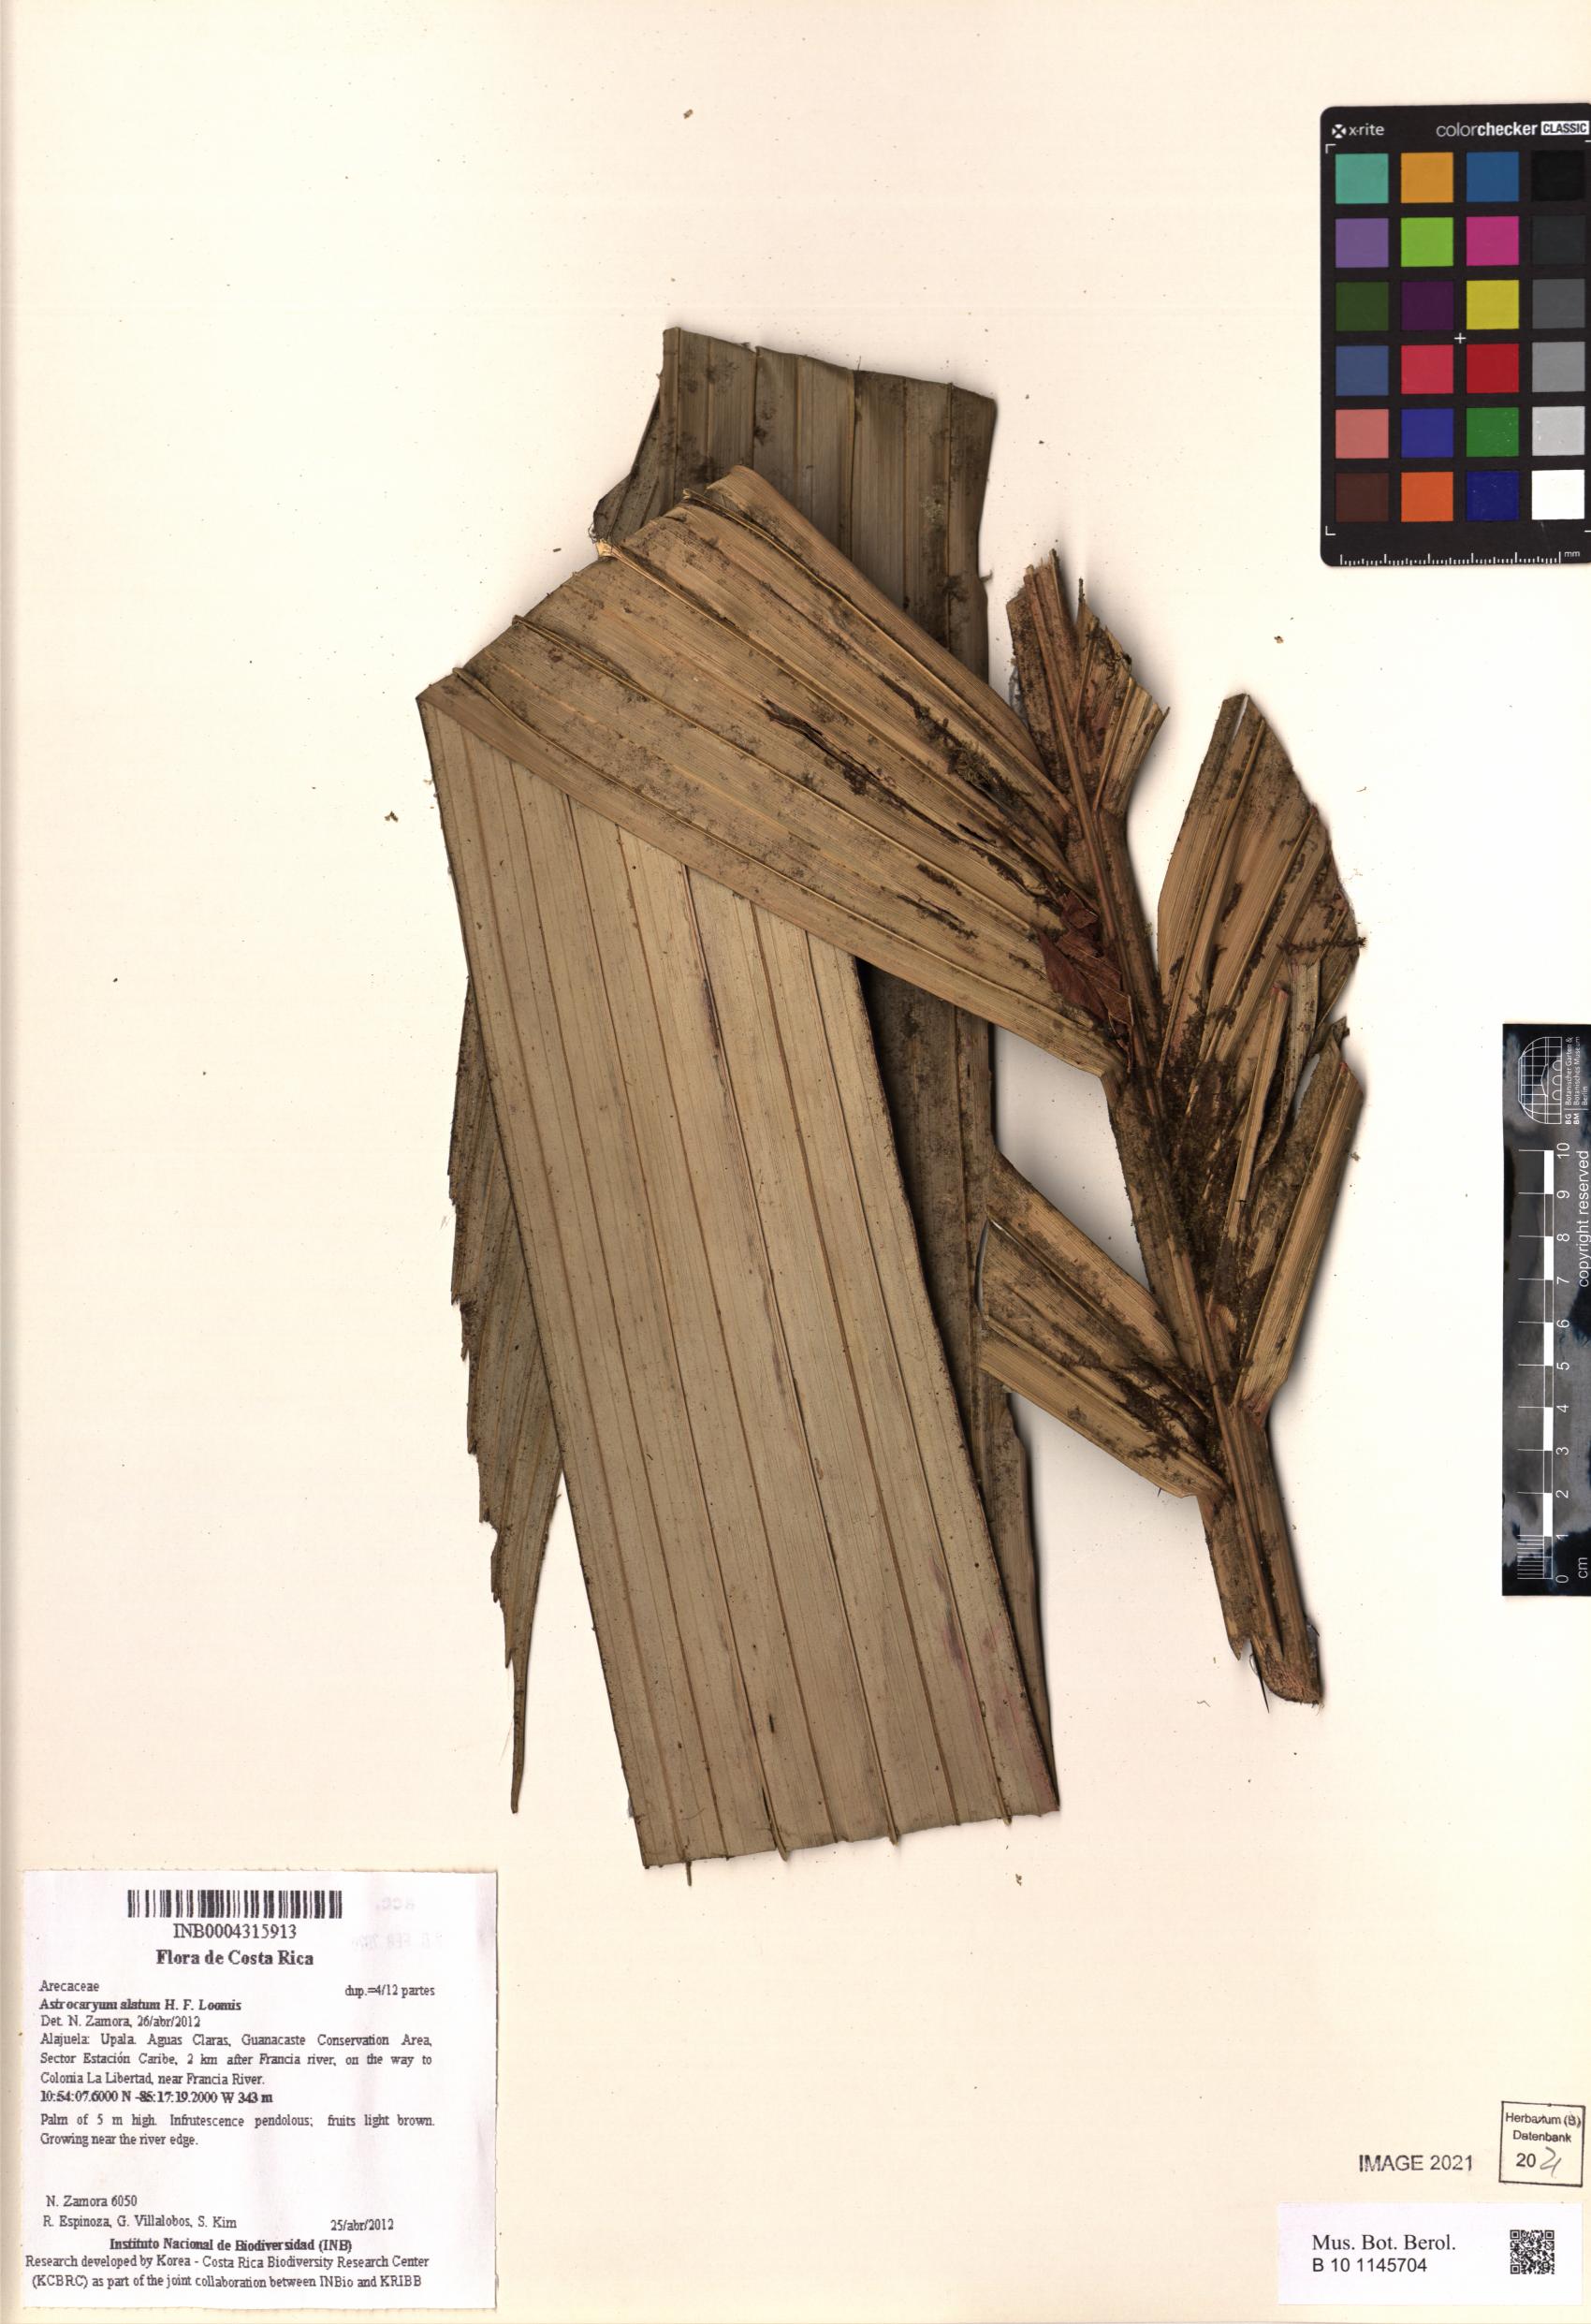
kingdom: Plantae
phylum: Tracheophyta
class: Liliopsida
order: Arecales
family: Arecaceae
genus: Astrocaryum
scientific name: Astrocaryum alatum
